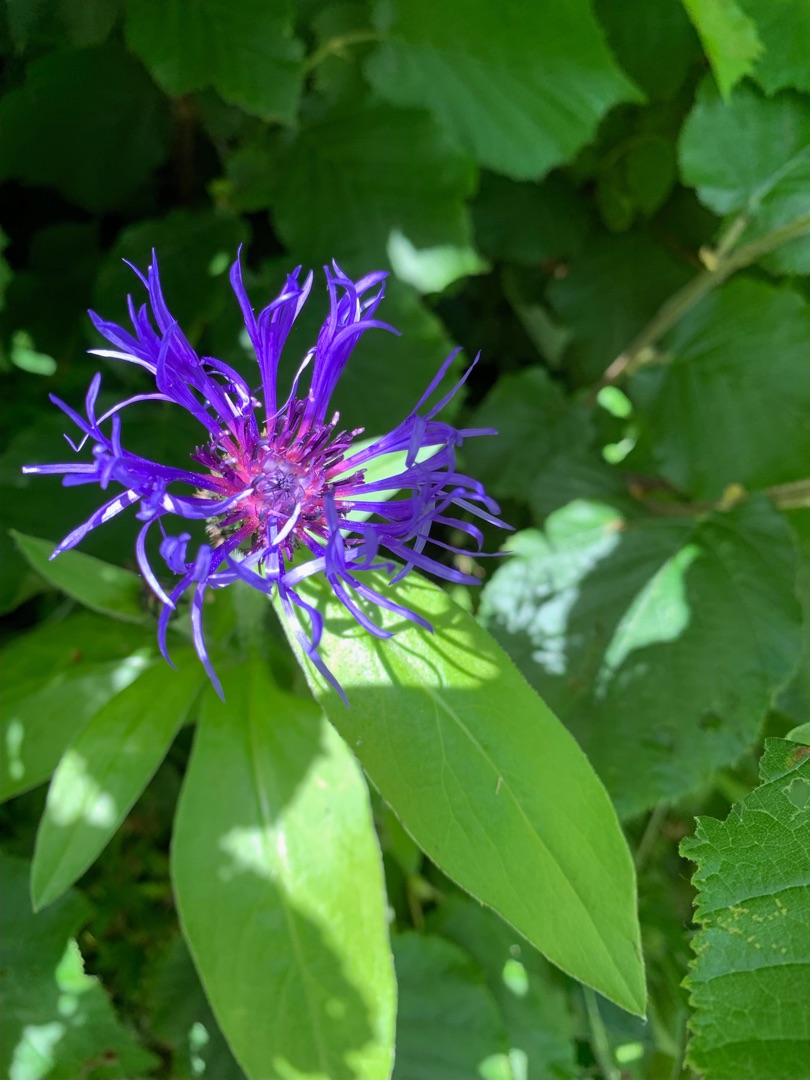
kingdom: Plantae
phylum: Tracheophyta
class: Magnoliopsida
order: Asterales
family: Asteraceae
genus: Centaurea
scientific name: Centaurea montana
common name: Bjerg-knopurt
